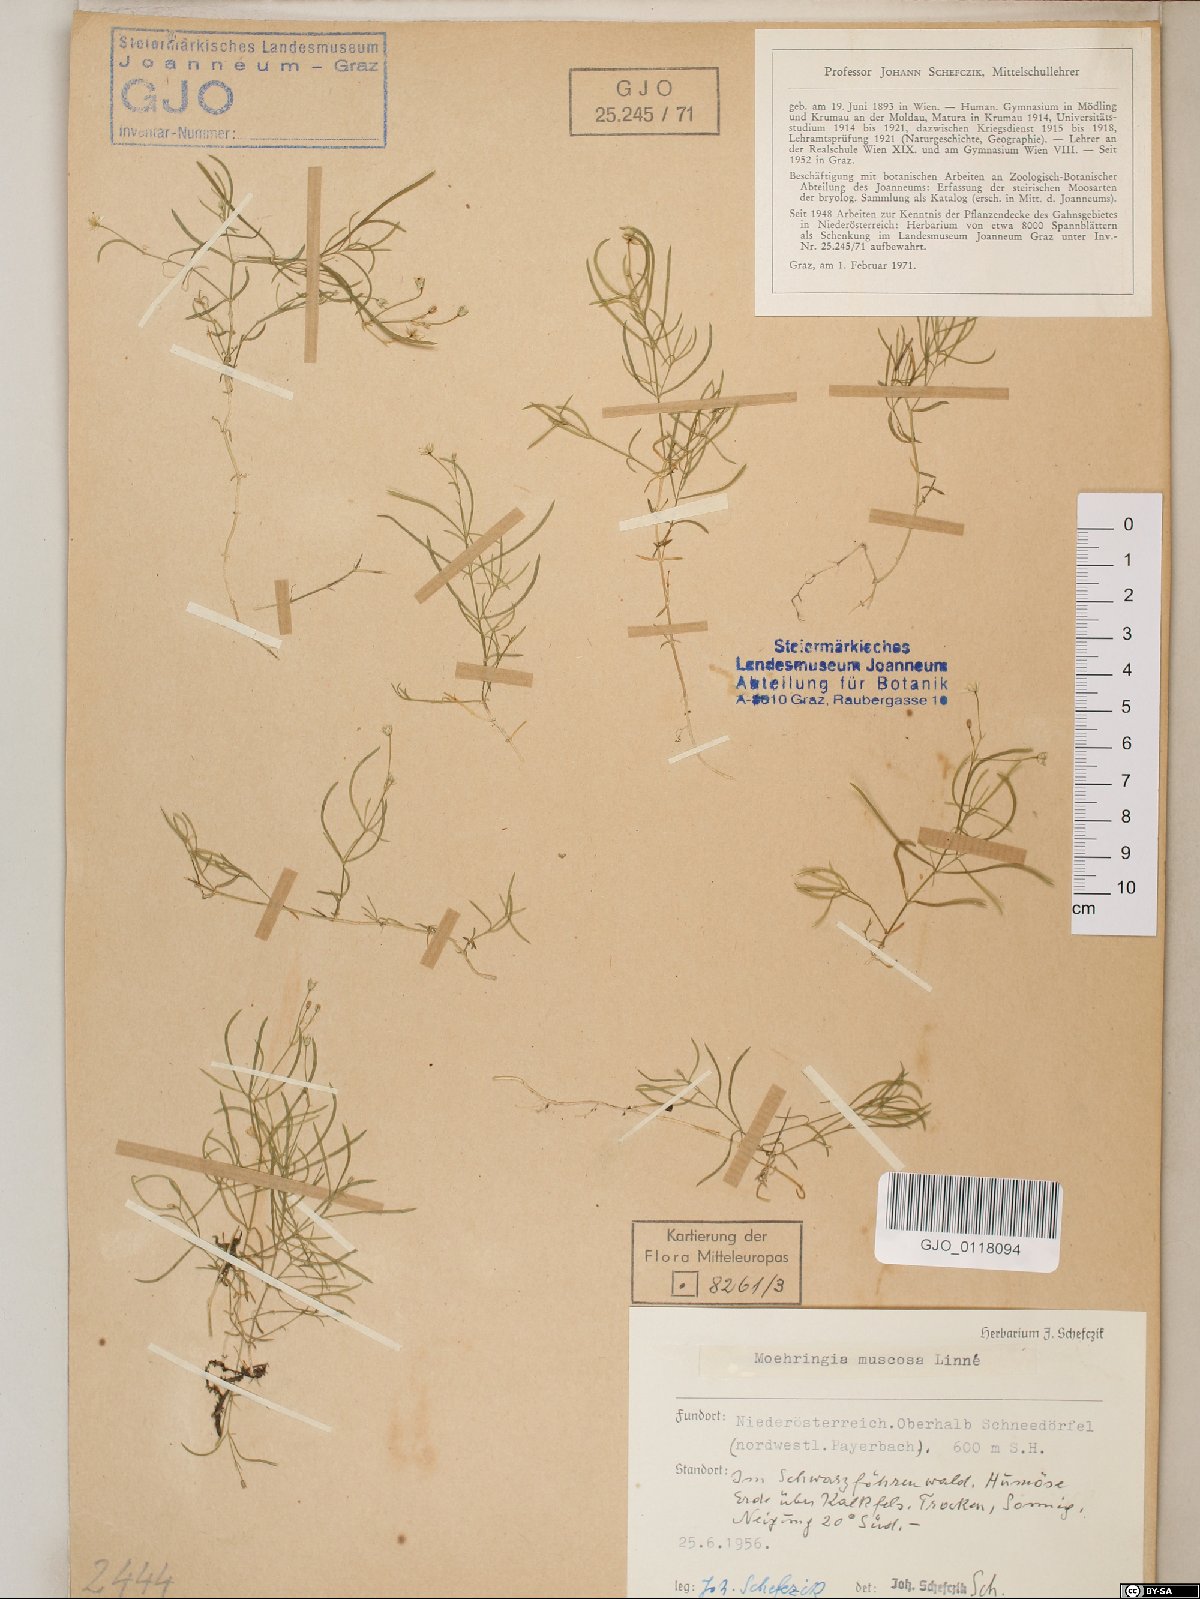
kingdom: Plantae
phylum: Tracheophyta
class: Magnoliopsida
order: Caryophyllales
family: Caryophyllaceae
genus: Moehringia
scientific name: Moehringia muscosa
